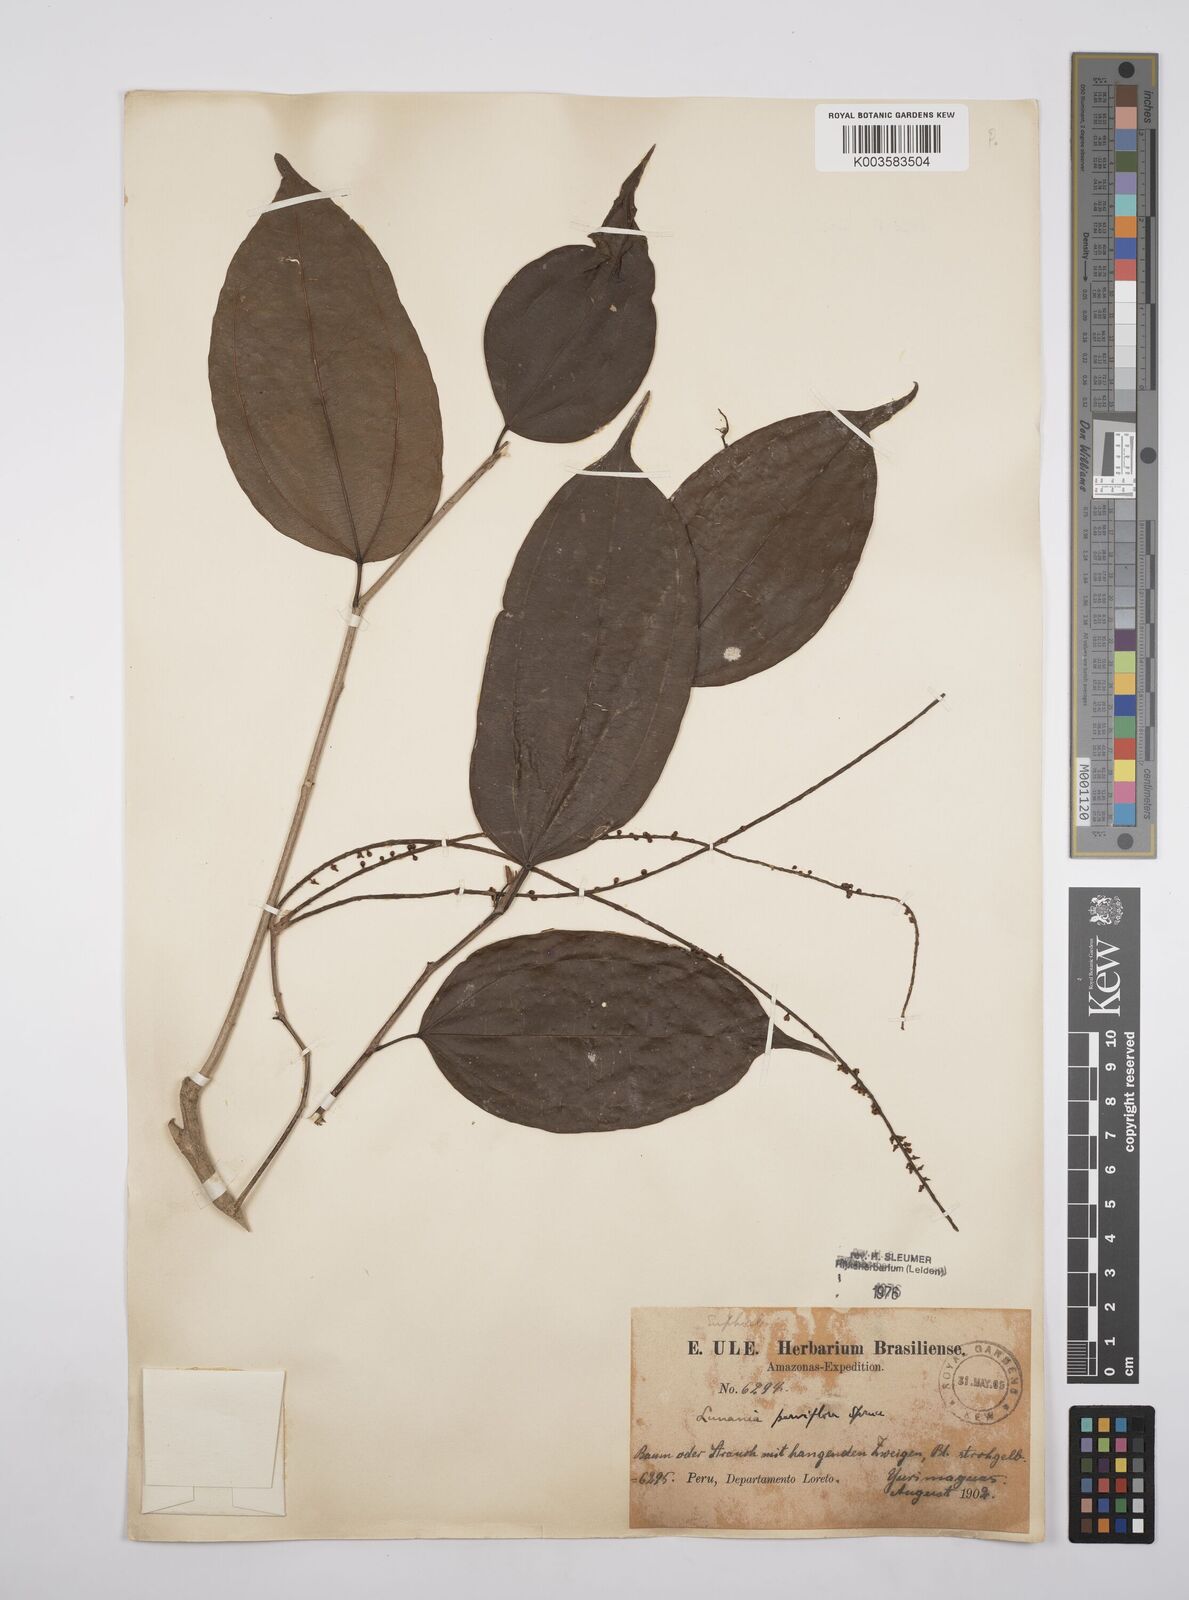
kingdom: Plantae
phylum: Tracheophyta
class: Magnoliopsida
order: Malpighiales
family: Salicaceae
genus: Lunania
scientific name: Lunania parviflora
